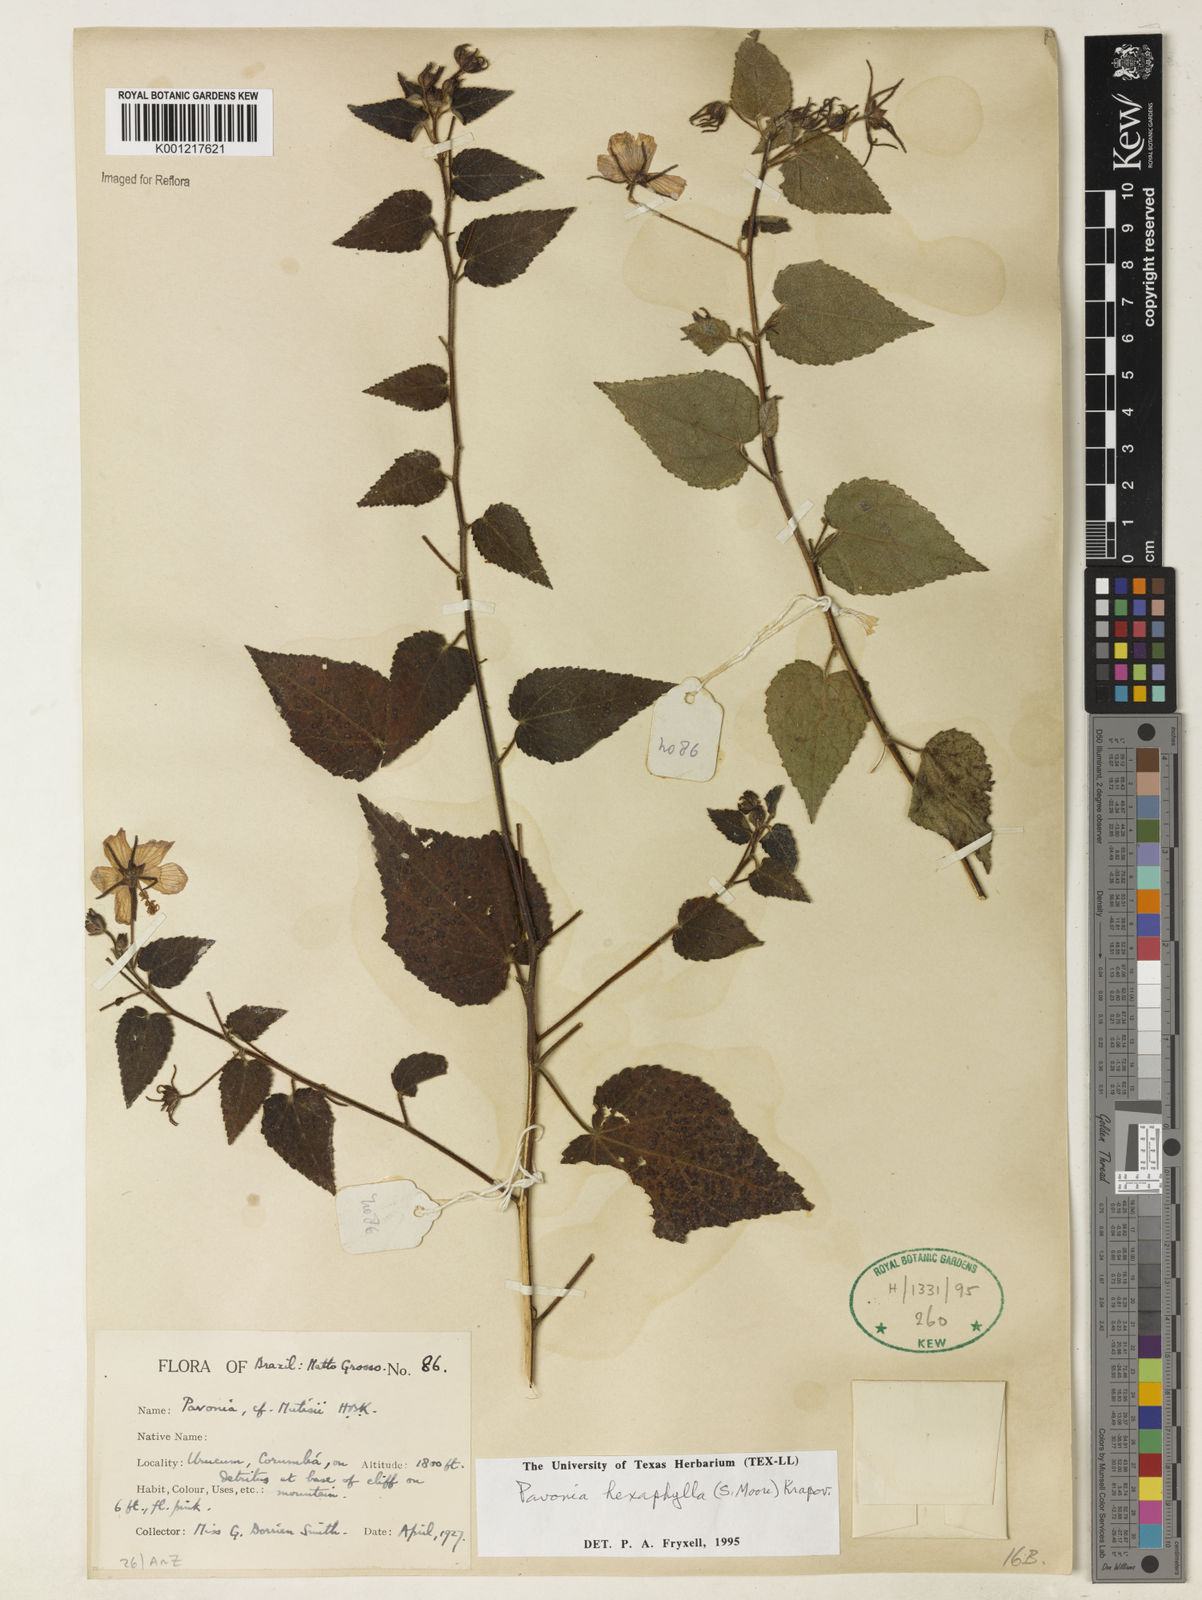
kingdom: Plantae
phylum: Tracheophyta
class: Magnoliopsida
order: Malvales
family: Malvaceae
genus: Pavonia
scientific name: Pavonia geminiflora
